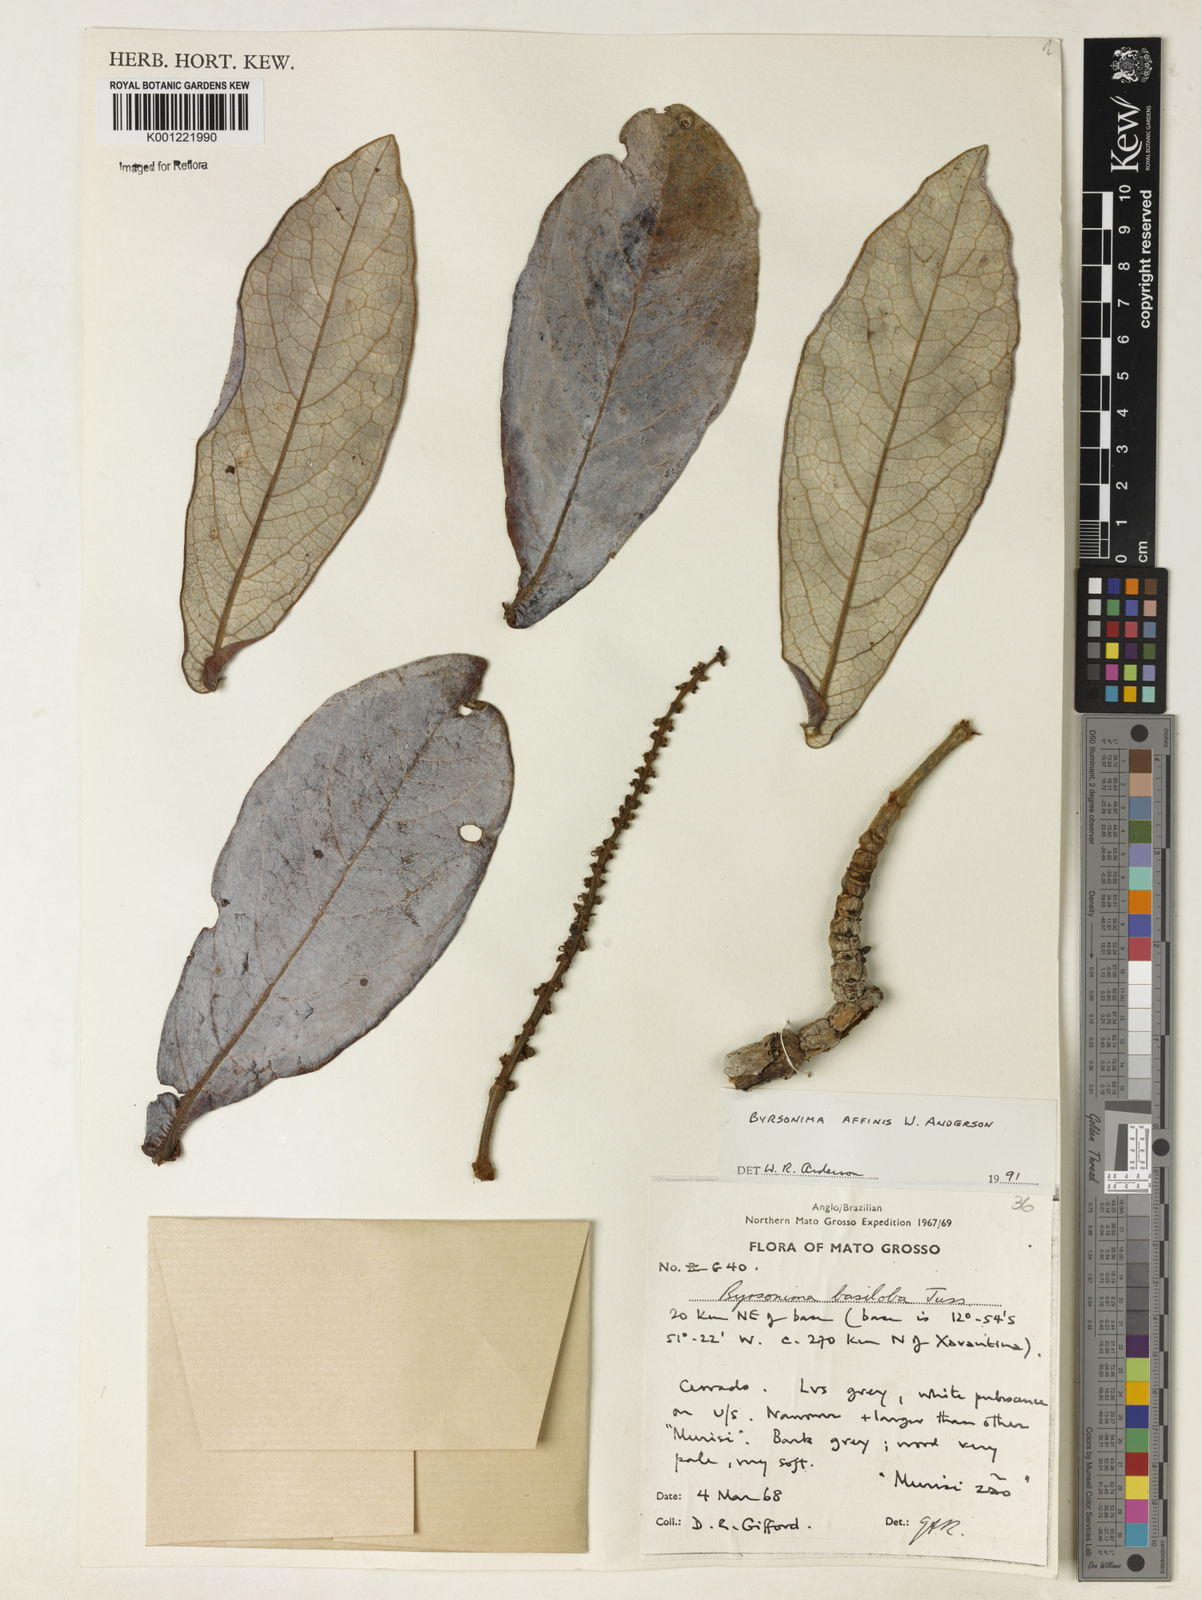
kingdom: Plantae
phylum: Tracheophyta
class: Magnoliopsida
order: Malpighiales
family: Malpighiaceae
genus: Byrsonima
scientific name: Byrsonima affinis
